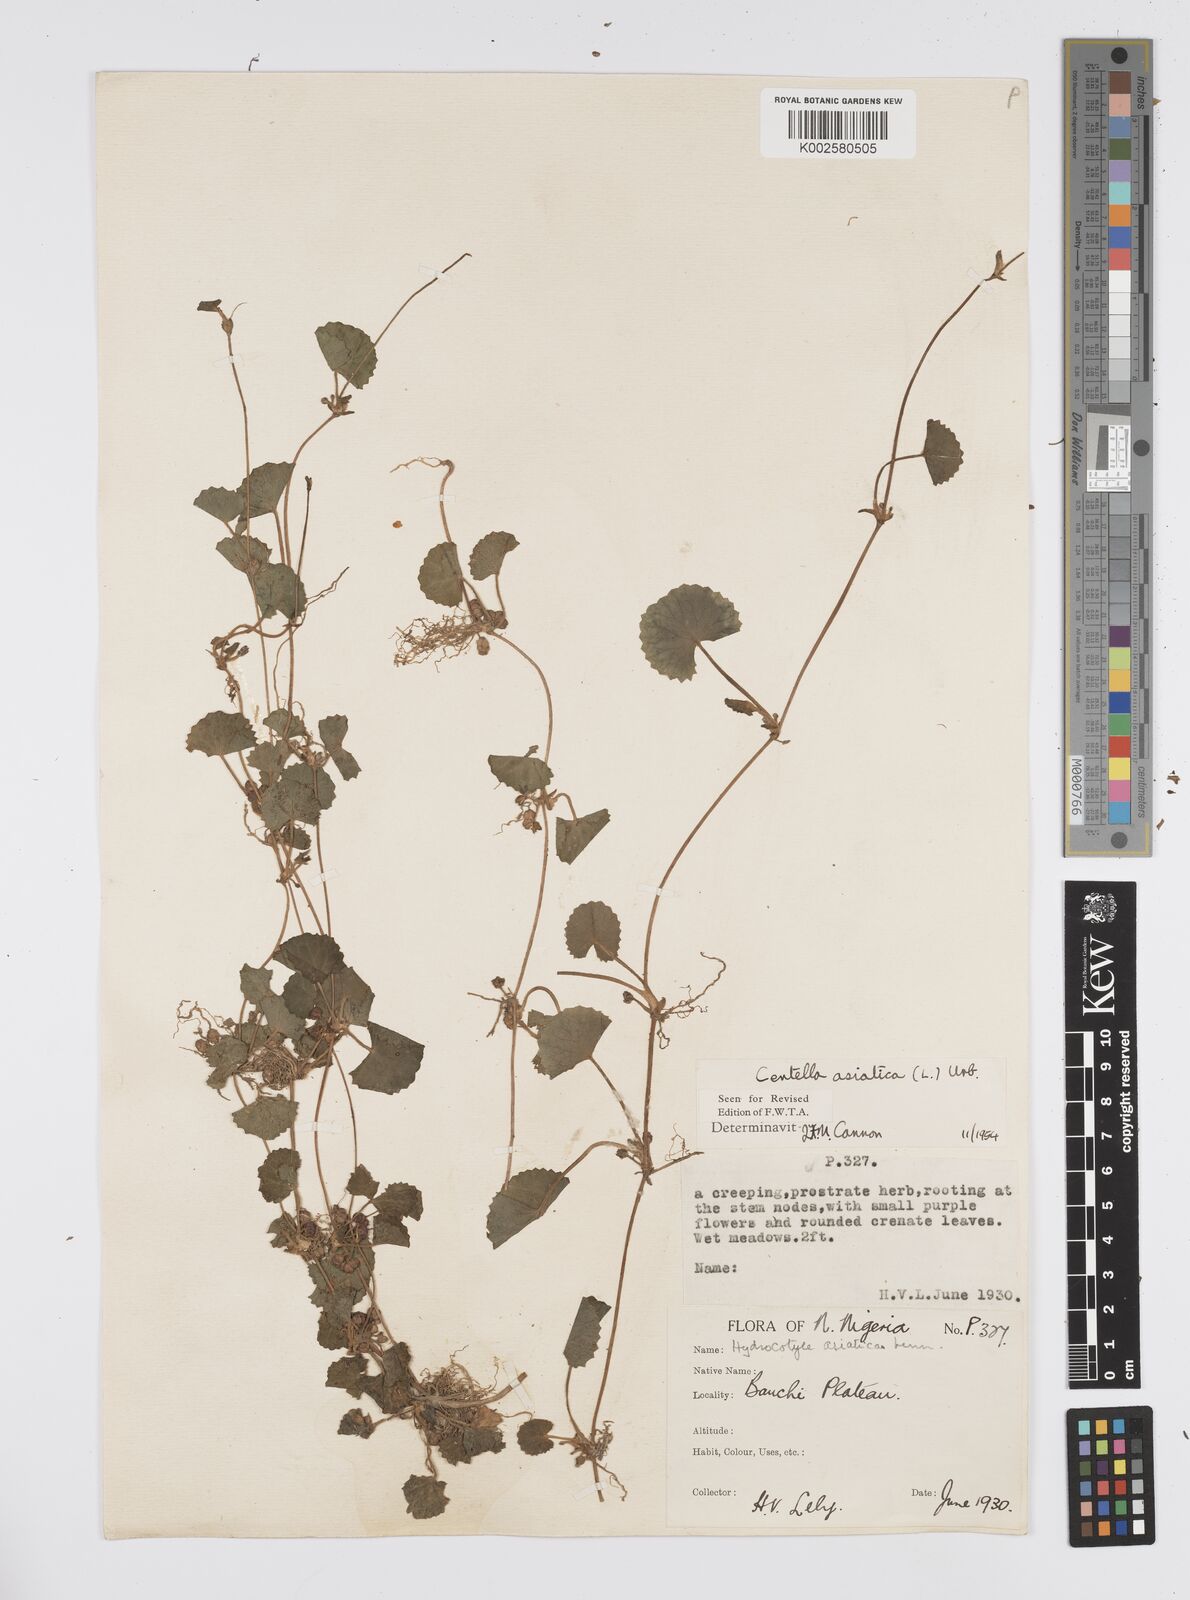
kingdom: Plantae
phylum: Tracheophyta
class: Magnoliopsida
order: Apiales
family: Apiaceae
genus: Centella
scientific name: Centella asiatica
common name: Spadeleaf
